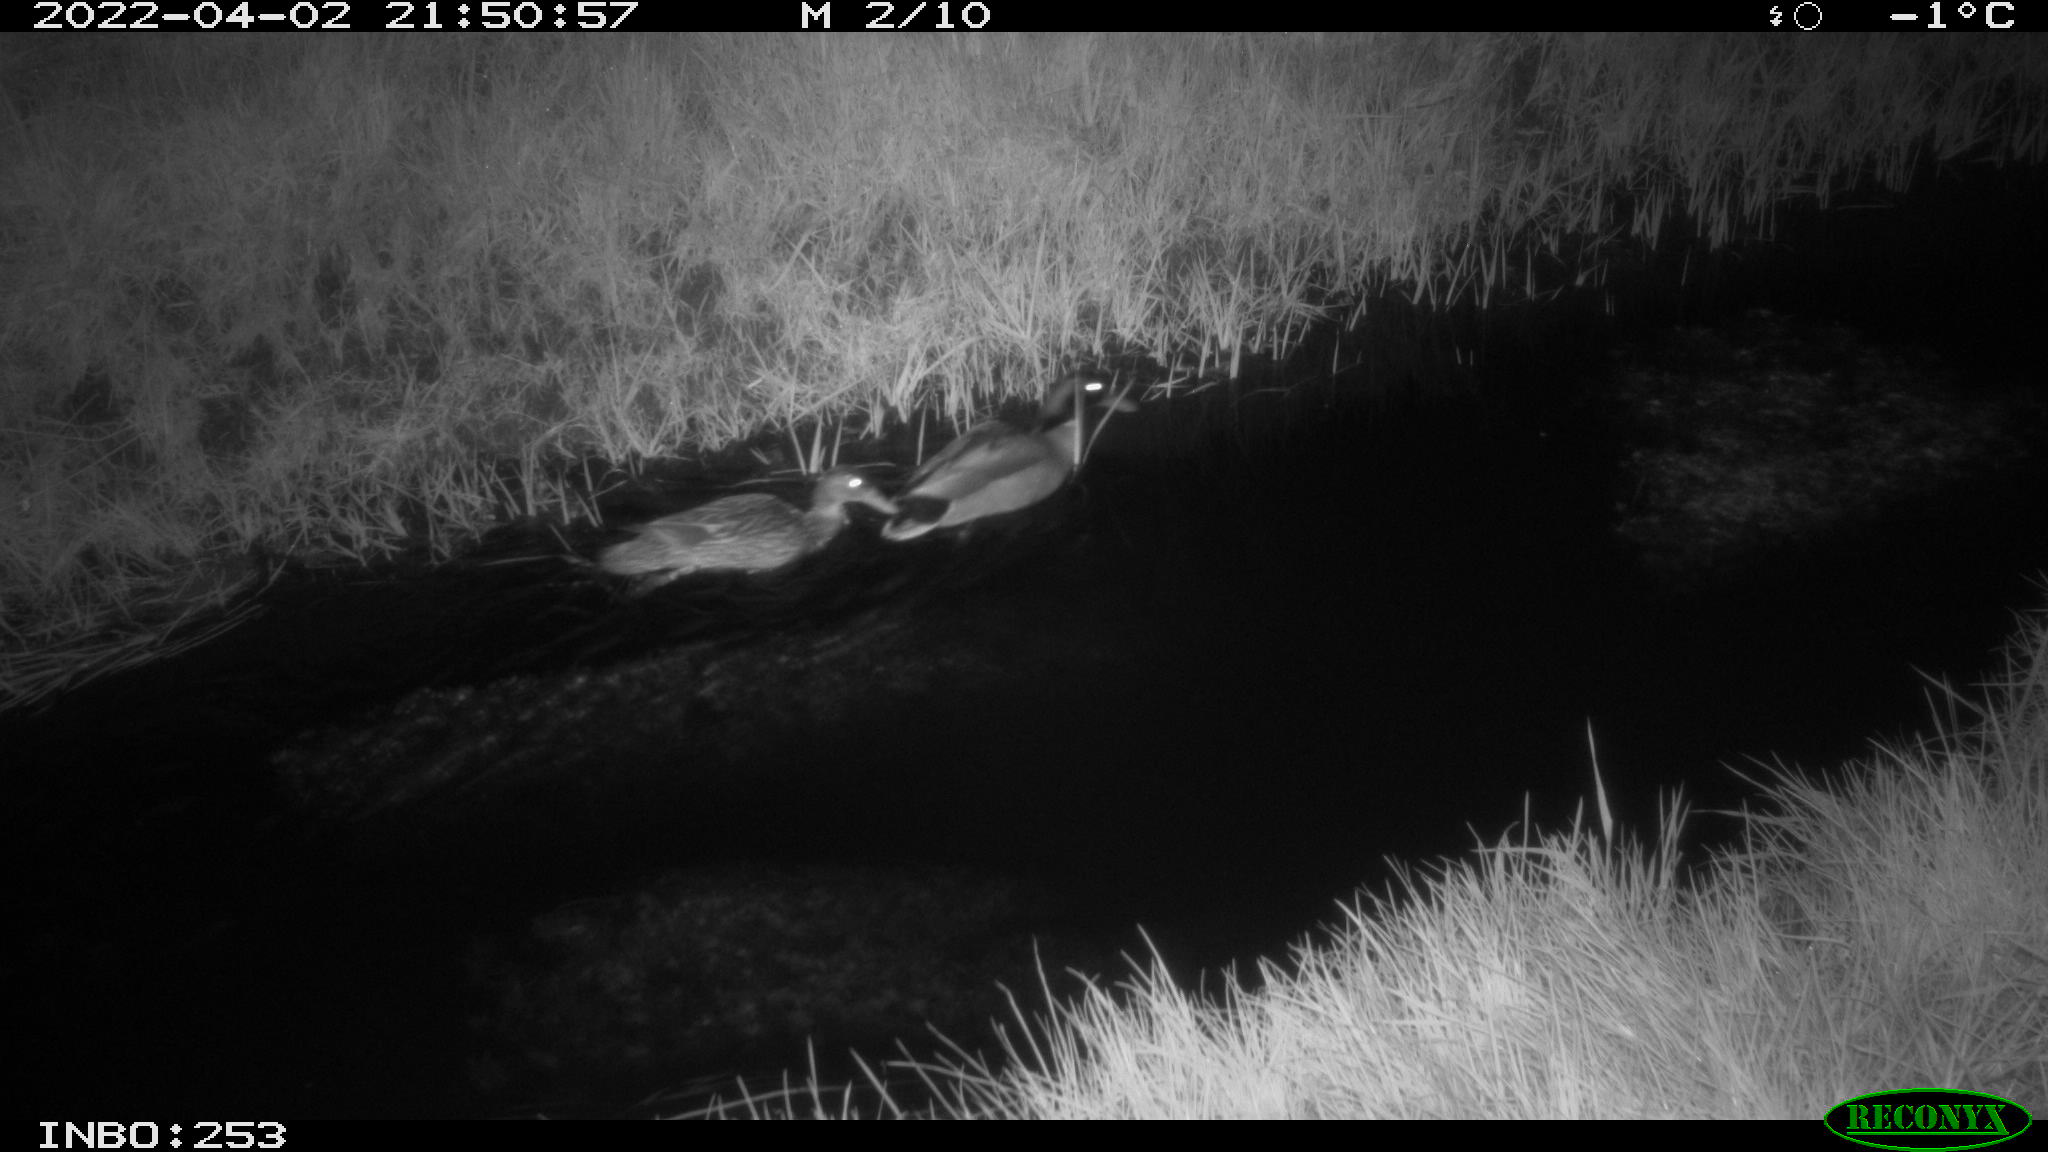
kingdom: Animalia
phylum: Chordata
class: Aves
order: Anseriformes
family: Anatidae
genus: Anas
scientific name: Anas platyrhynchos
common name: Mallard
